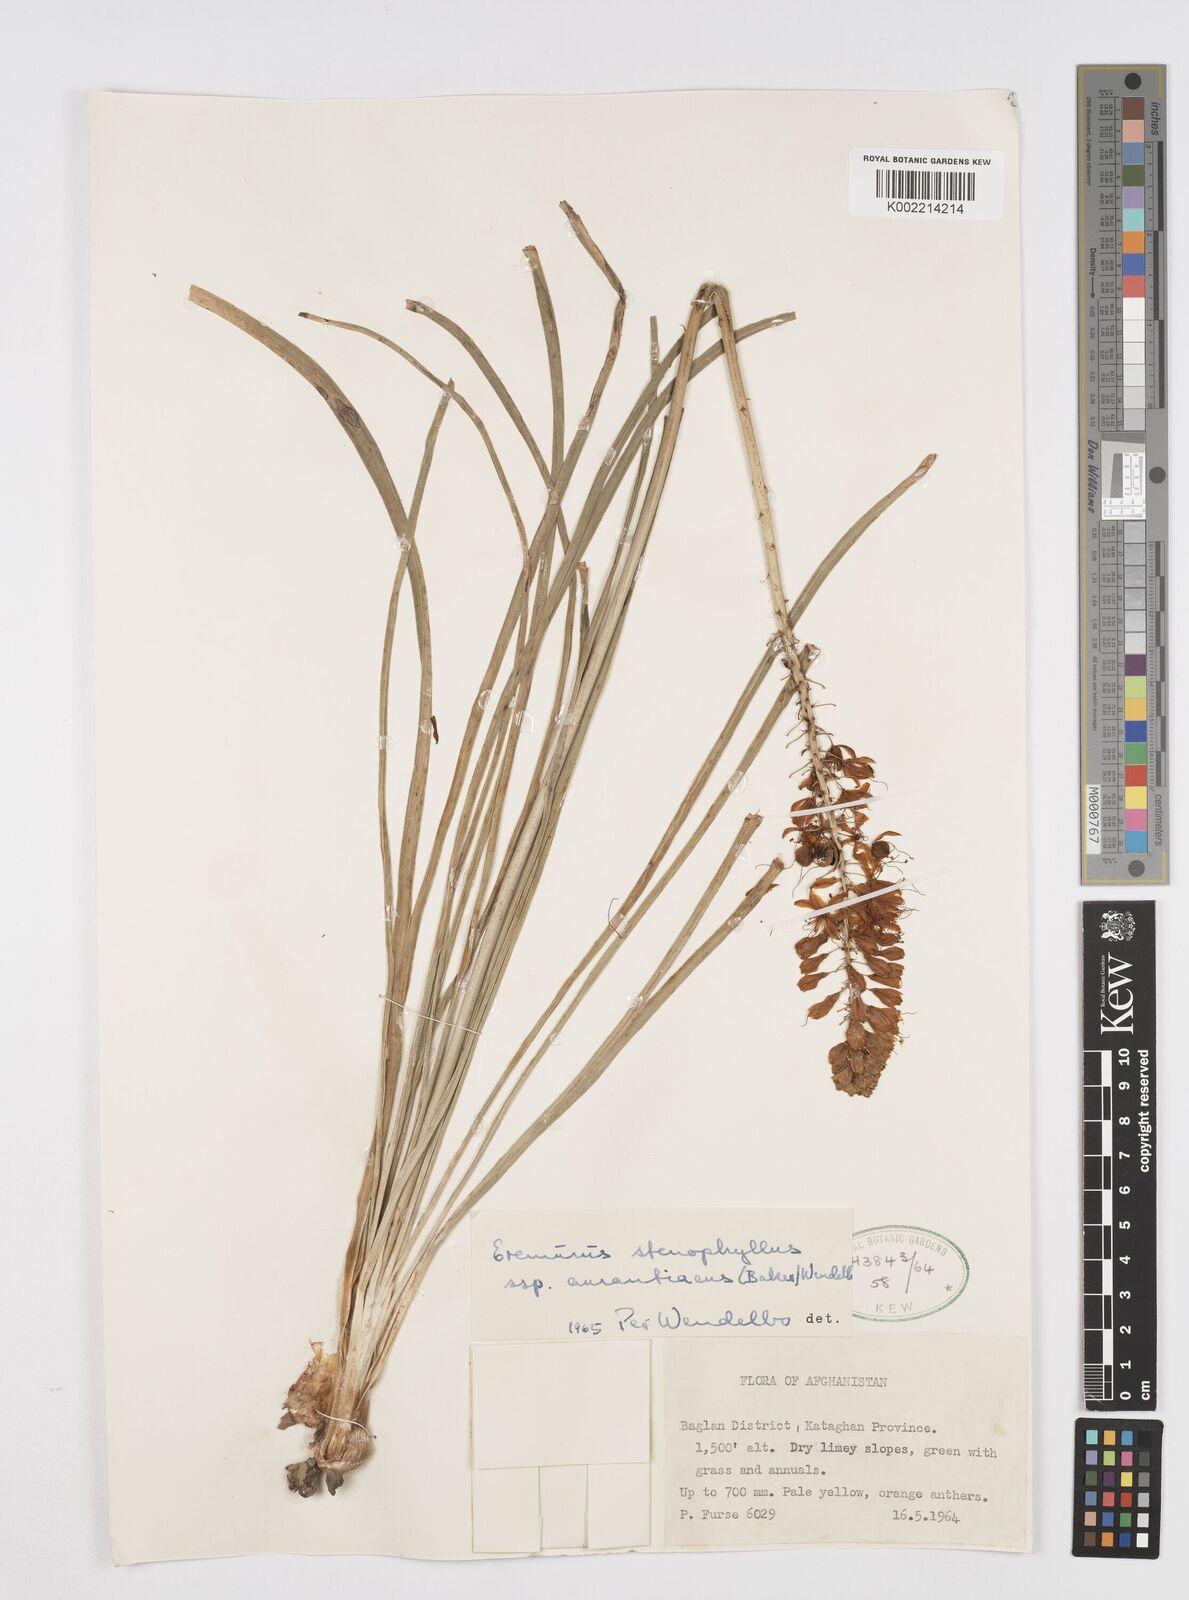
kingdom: Plantae
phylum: Tracheophyta
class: Liliopsida
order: Asparagales
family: Asphodelaceae
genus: Eremurus
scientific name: Eremurus stenophyllus
